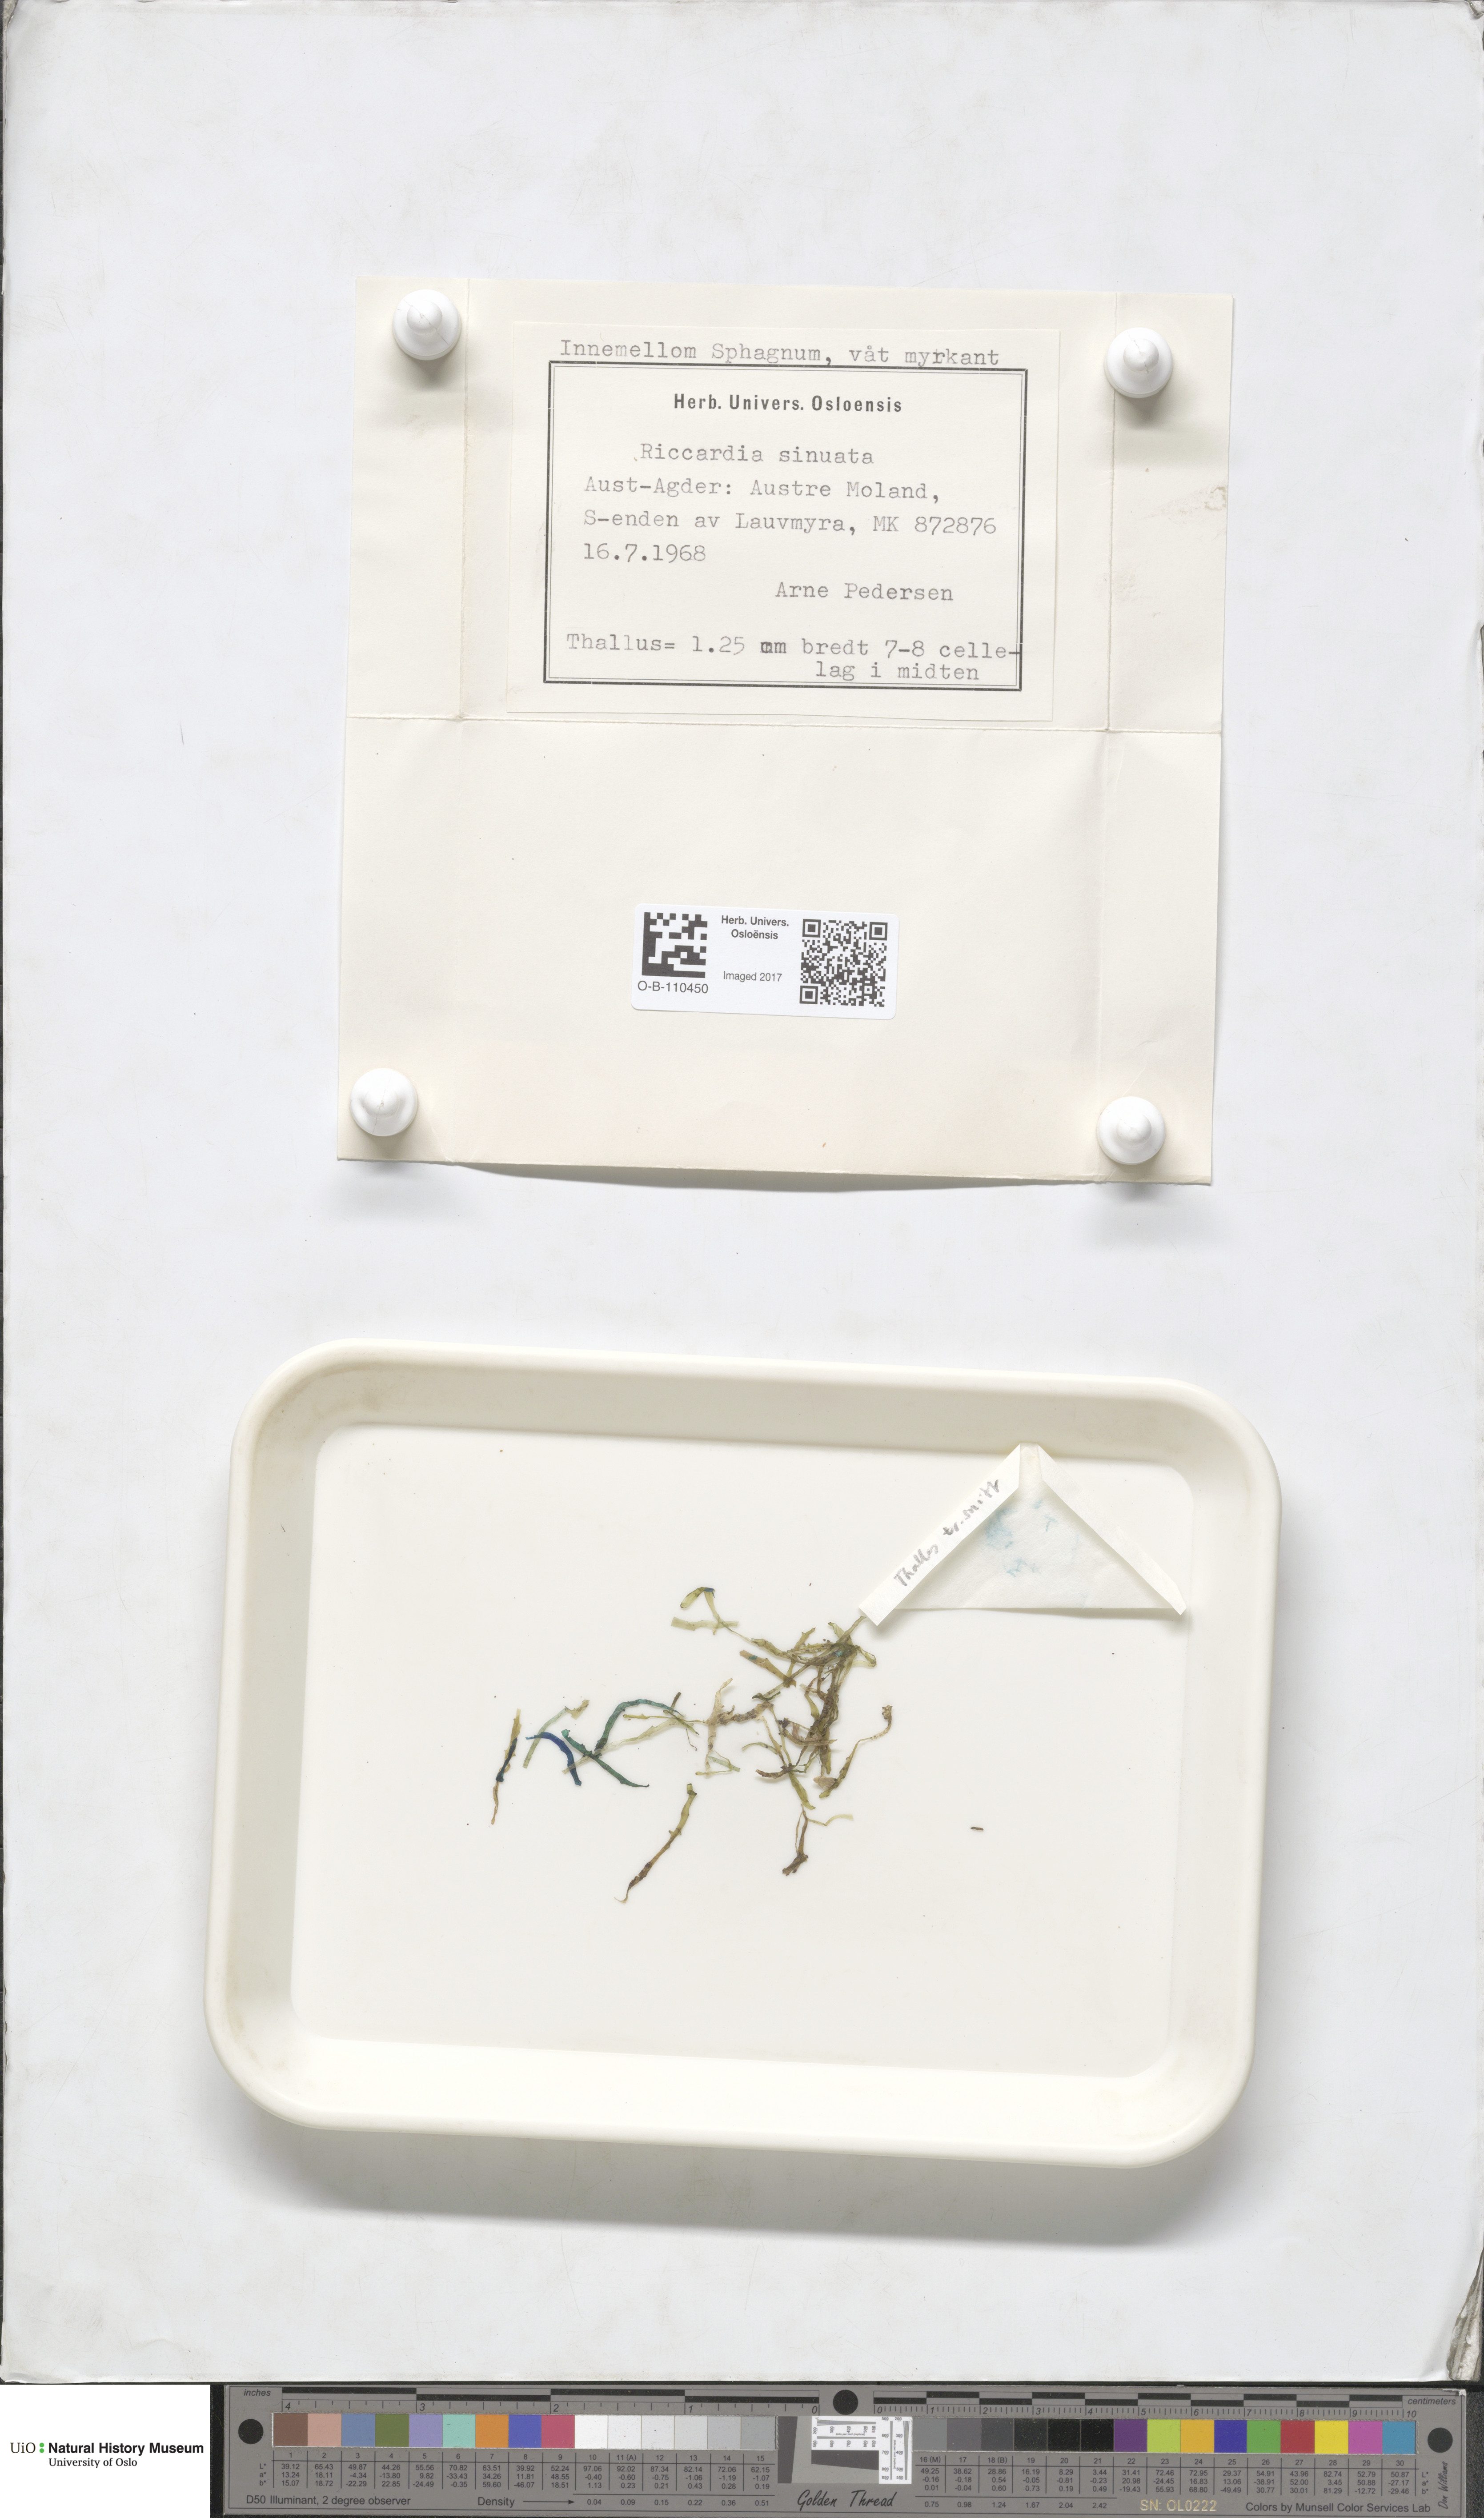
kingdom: Plantae
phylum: Marchantiophyta
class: Jungermanniopsida
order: Metzgeriales
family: Aneuraceae
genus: Riccardia
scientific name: Riccardia chamaedryfolia
